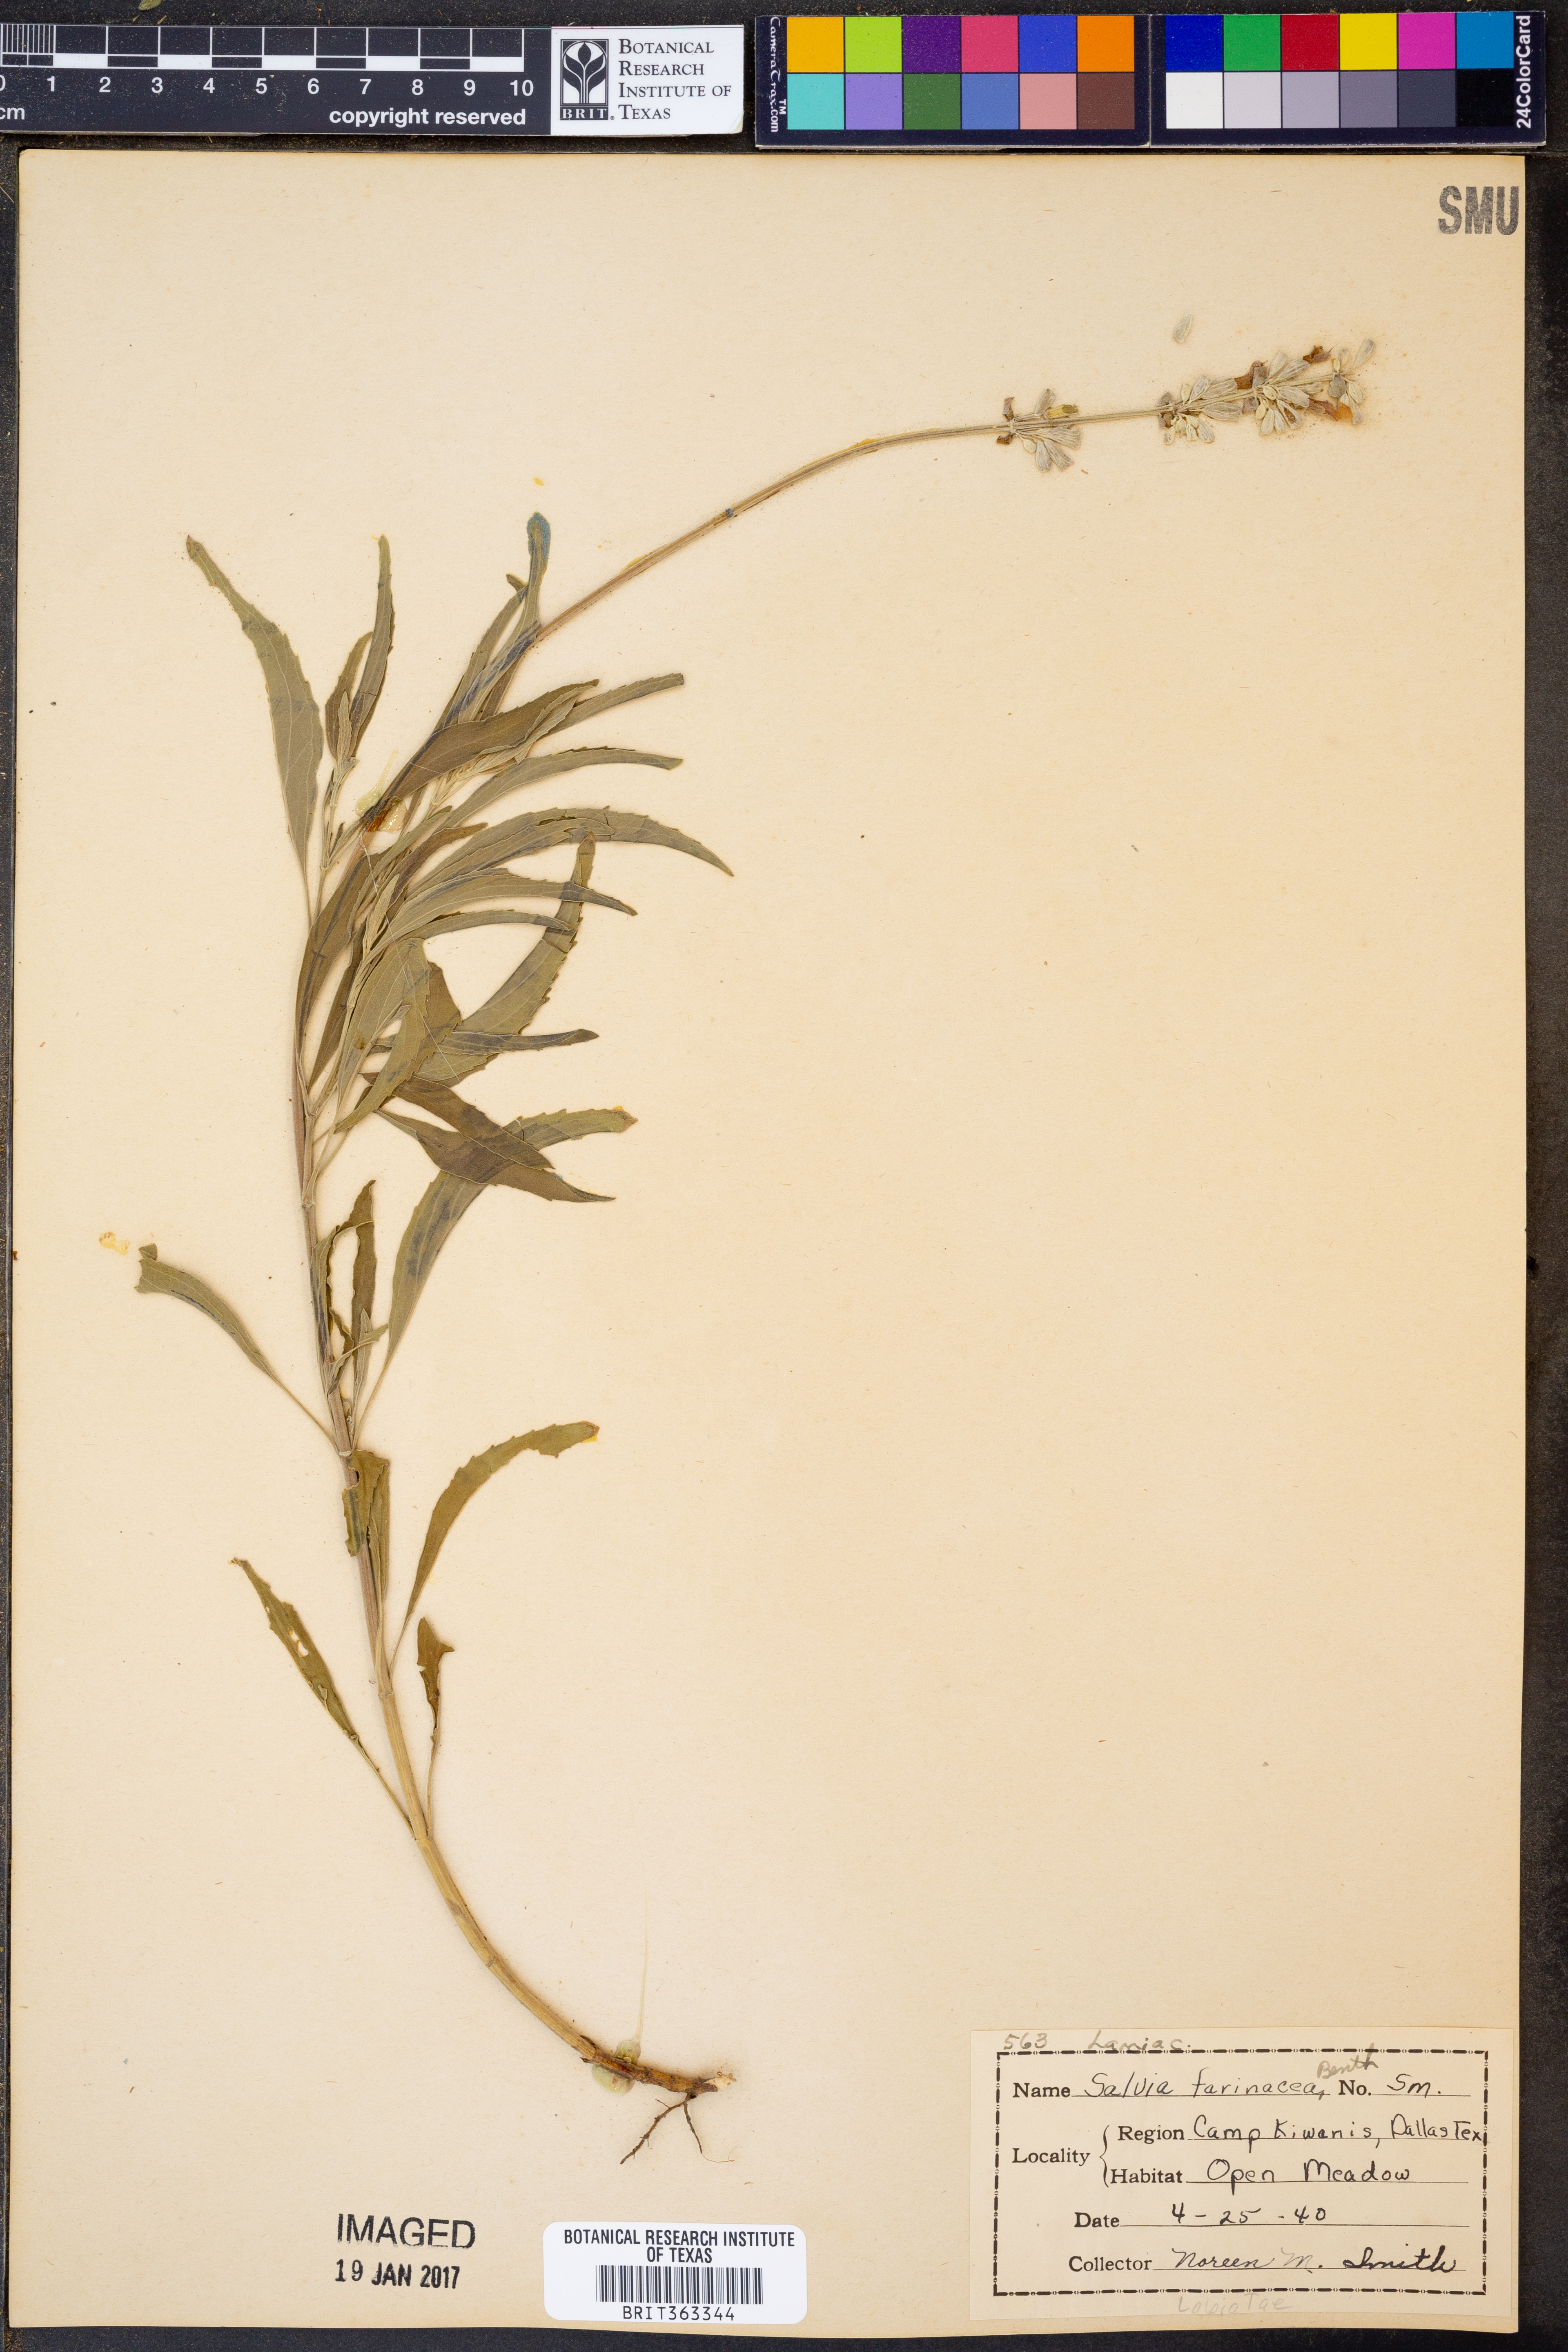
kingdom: Plantae
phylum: Tracheophyta
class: Magnoliopsida
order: Lamiales
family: Lamiaceae
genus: Salvia
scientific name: Salvia farinacea
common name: Mealy sage
